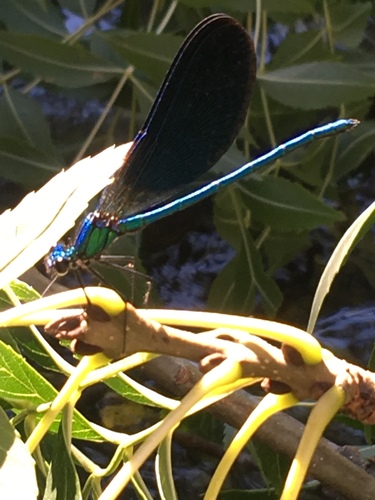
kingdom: Animalia
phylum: Arthropoda
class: Insecta
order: Odonata
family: Calopterygidae
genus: Calopteryx
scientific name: Calopteryx virgo
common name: Beautiful demoiselle
